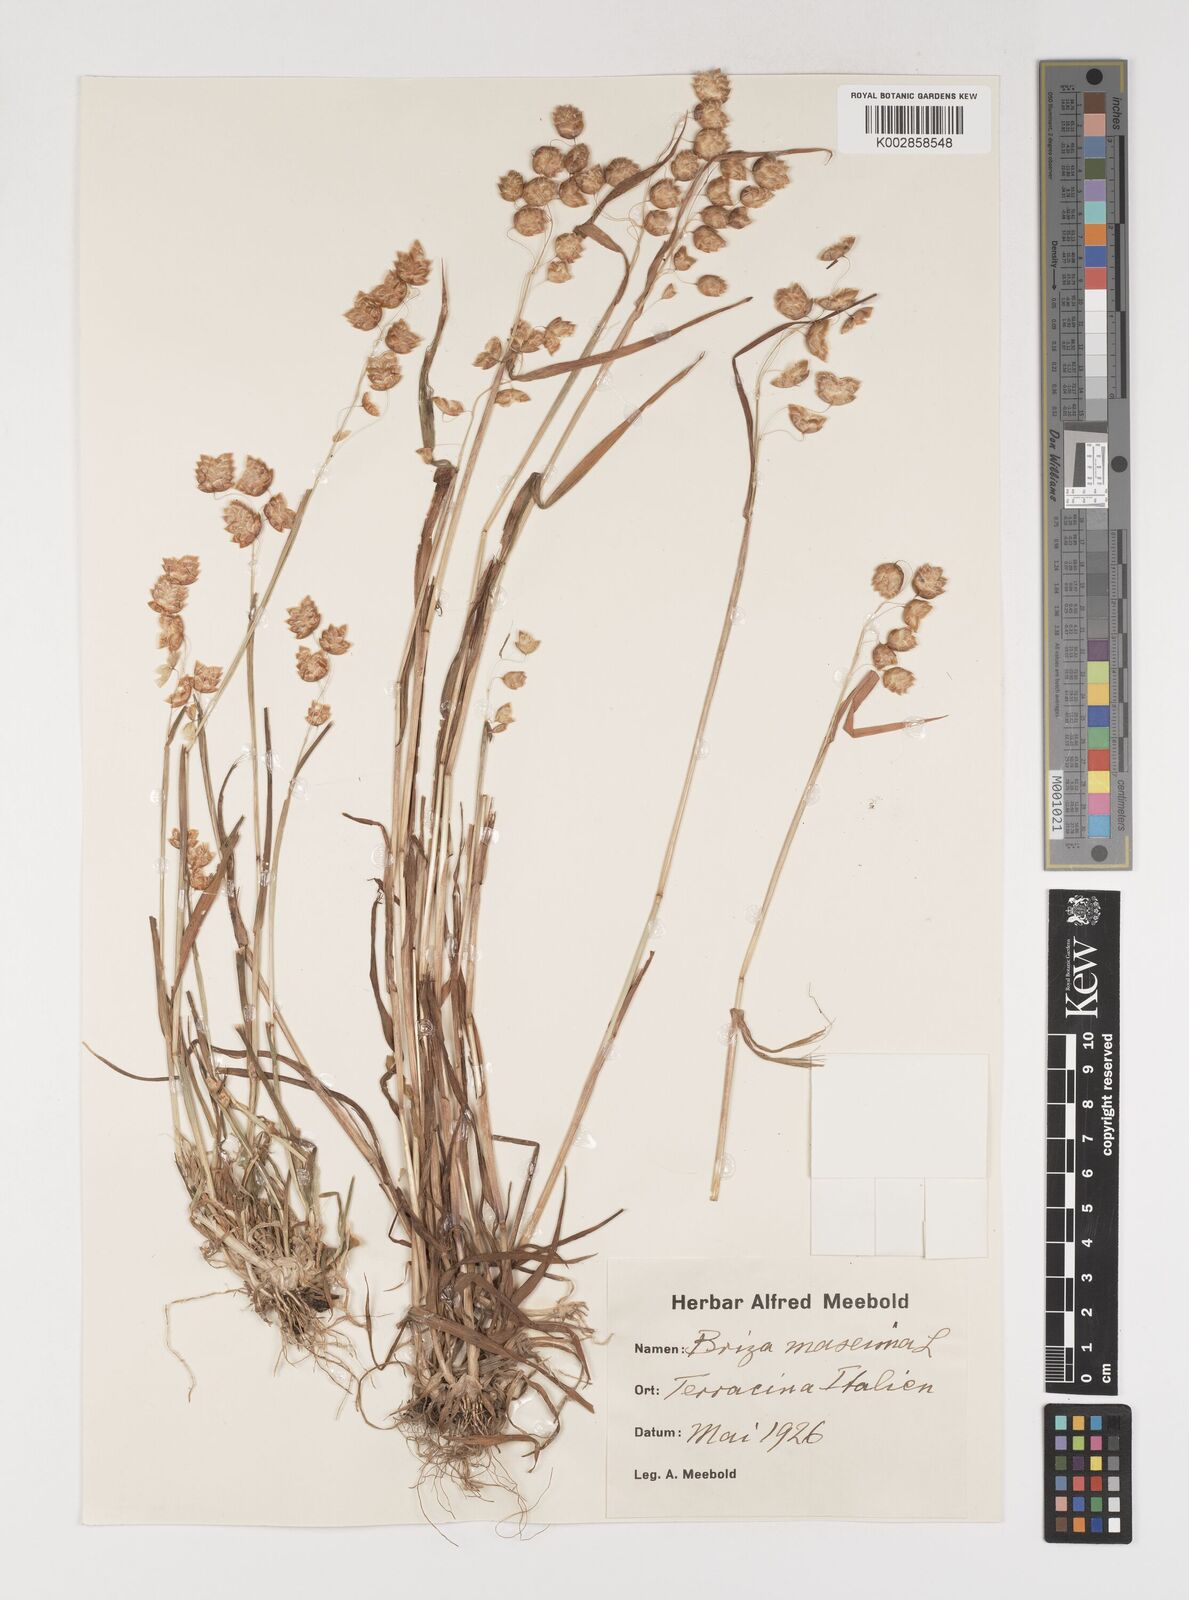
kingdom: Plantae
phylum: Tracheophyta
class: Liliopsida
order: Poales
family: Poaceae
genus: Briza
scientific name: Briza maxima
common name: Big quakinggrass
